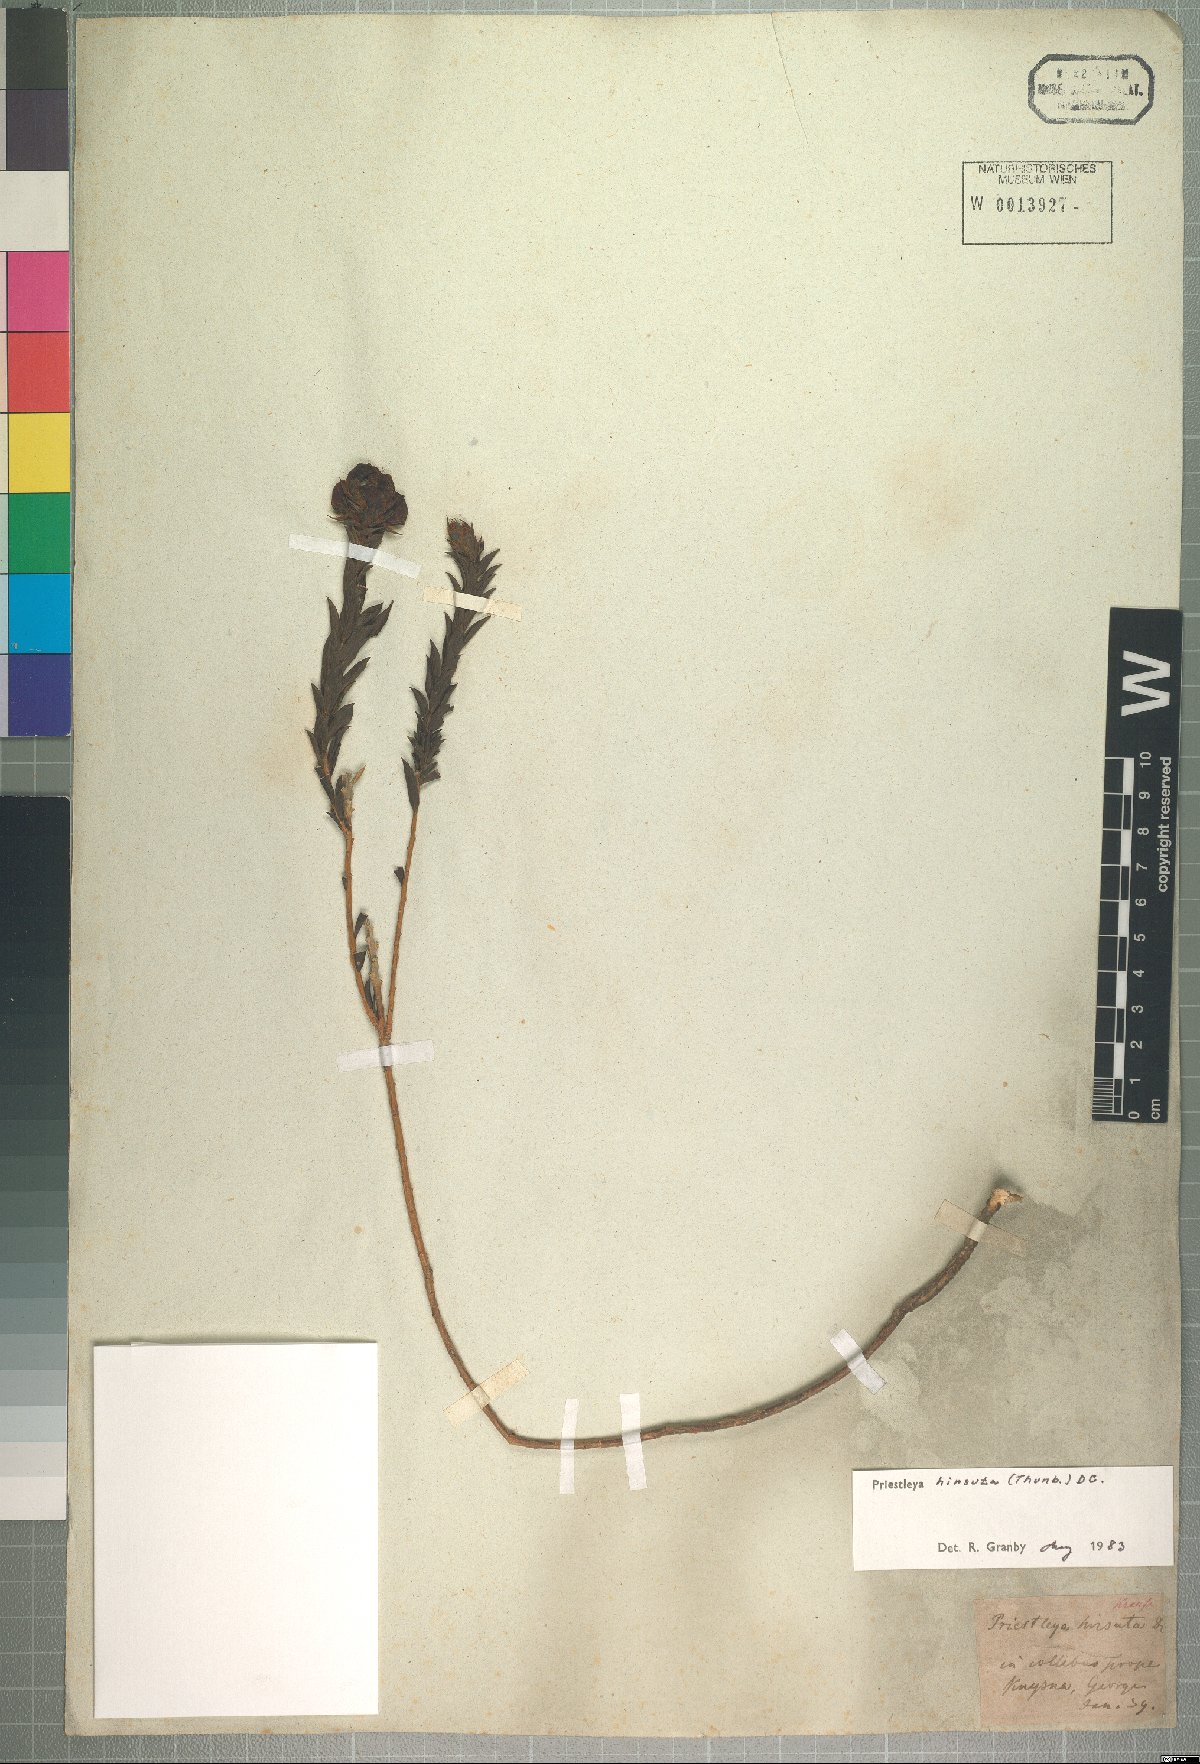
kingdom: Plantae
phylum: Tracheophyta
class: Magnoliopsida
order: Fabales
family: Fabaceae
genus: Liparia
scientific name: Liparia hirsuta
